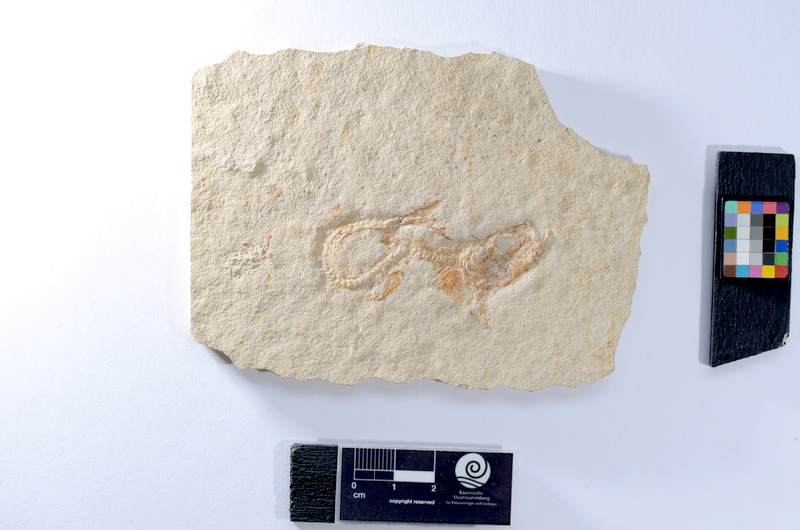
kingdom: Animalia
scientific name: Animalia
